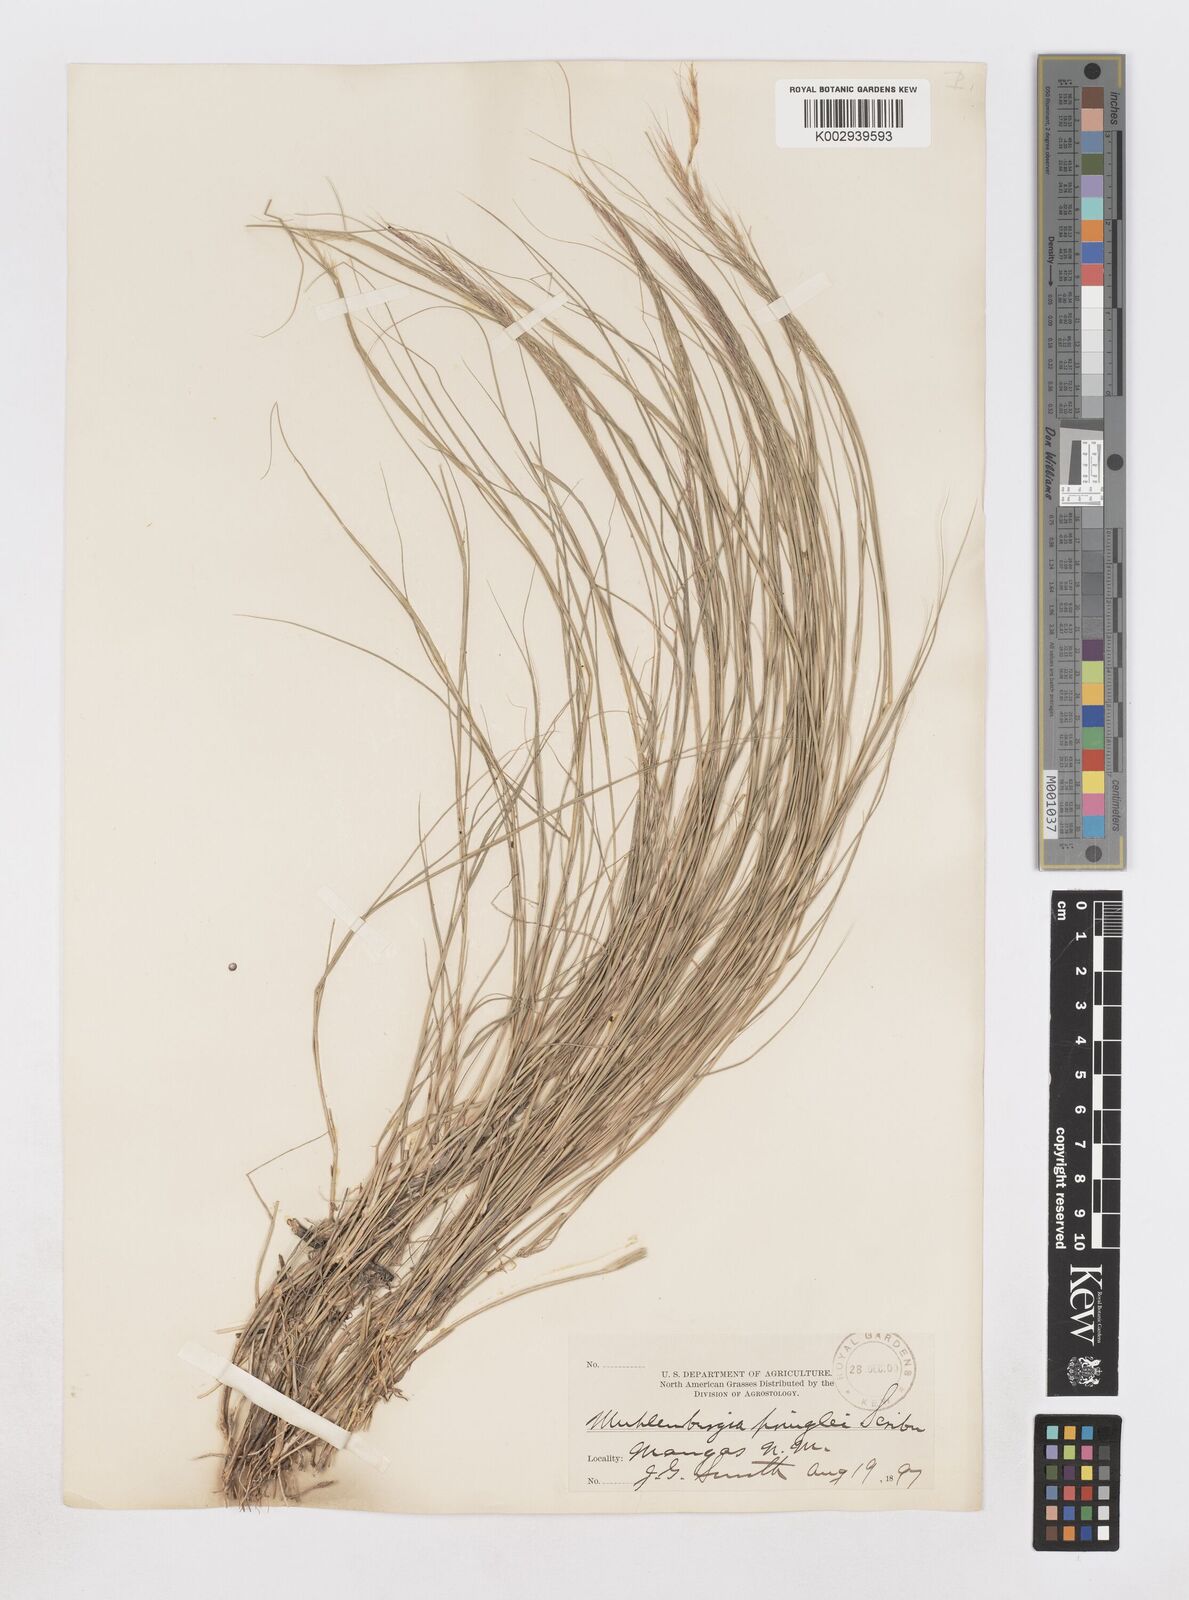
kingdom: Plantae
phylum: Tracheophyta
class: Liliopsida
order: Poales
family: Poaceae
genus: Muhlenbergia
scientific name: Muhlenbergia pauciflora
